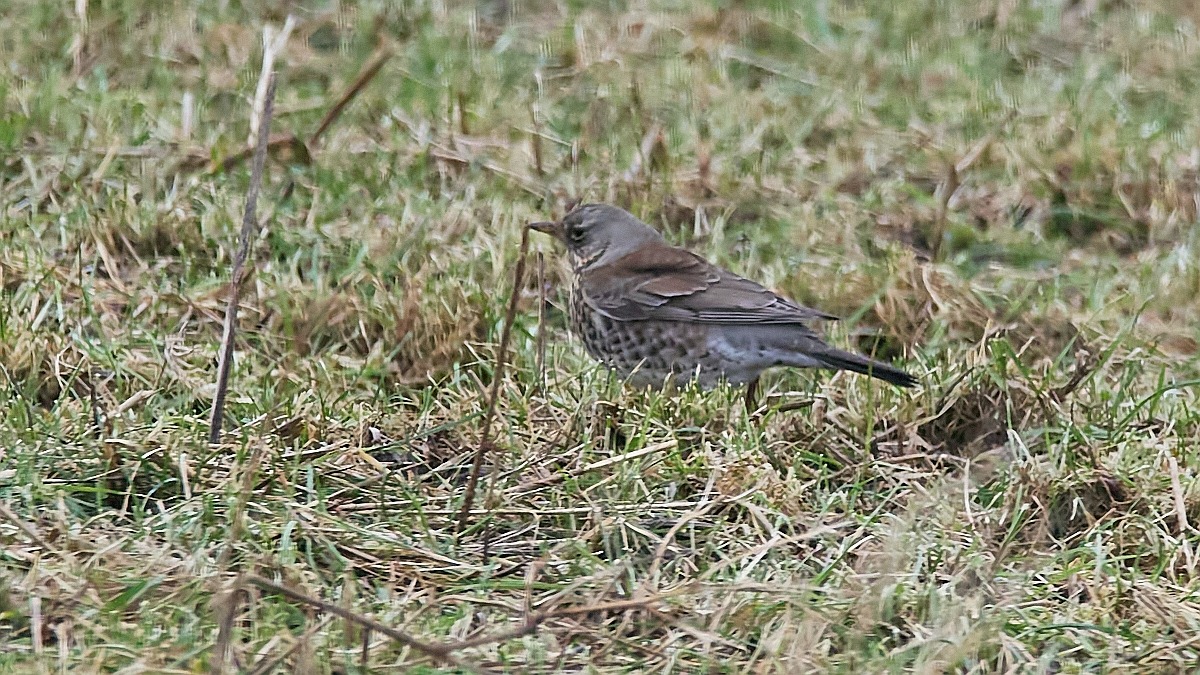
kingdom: Animalia
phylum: Chordata
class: Aves
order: Passeriformes
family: Turdidae
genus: Turdus
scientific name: Turdus pilaris
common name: Sjagger
